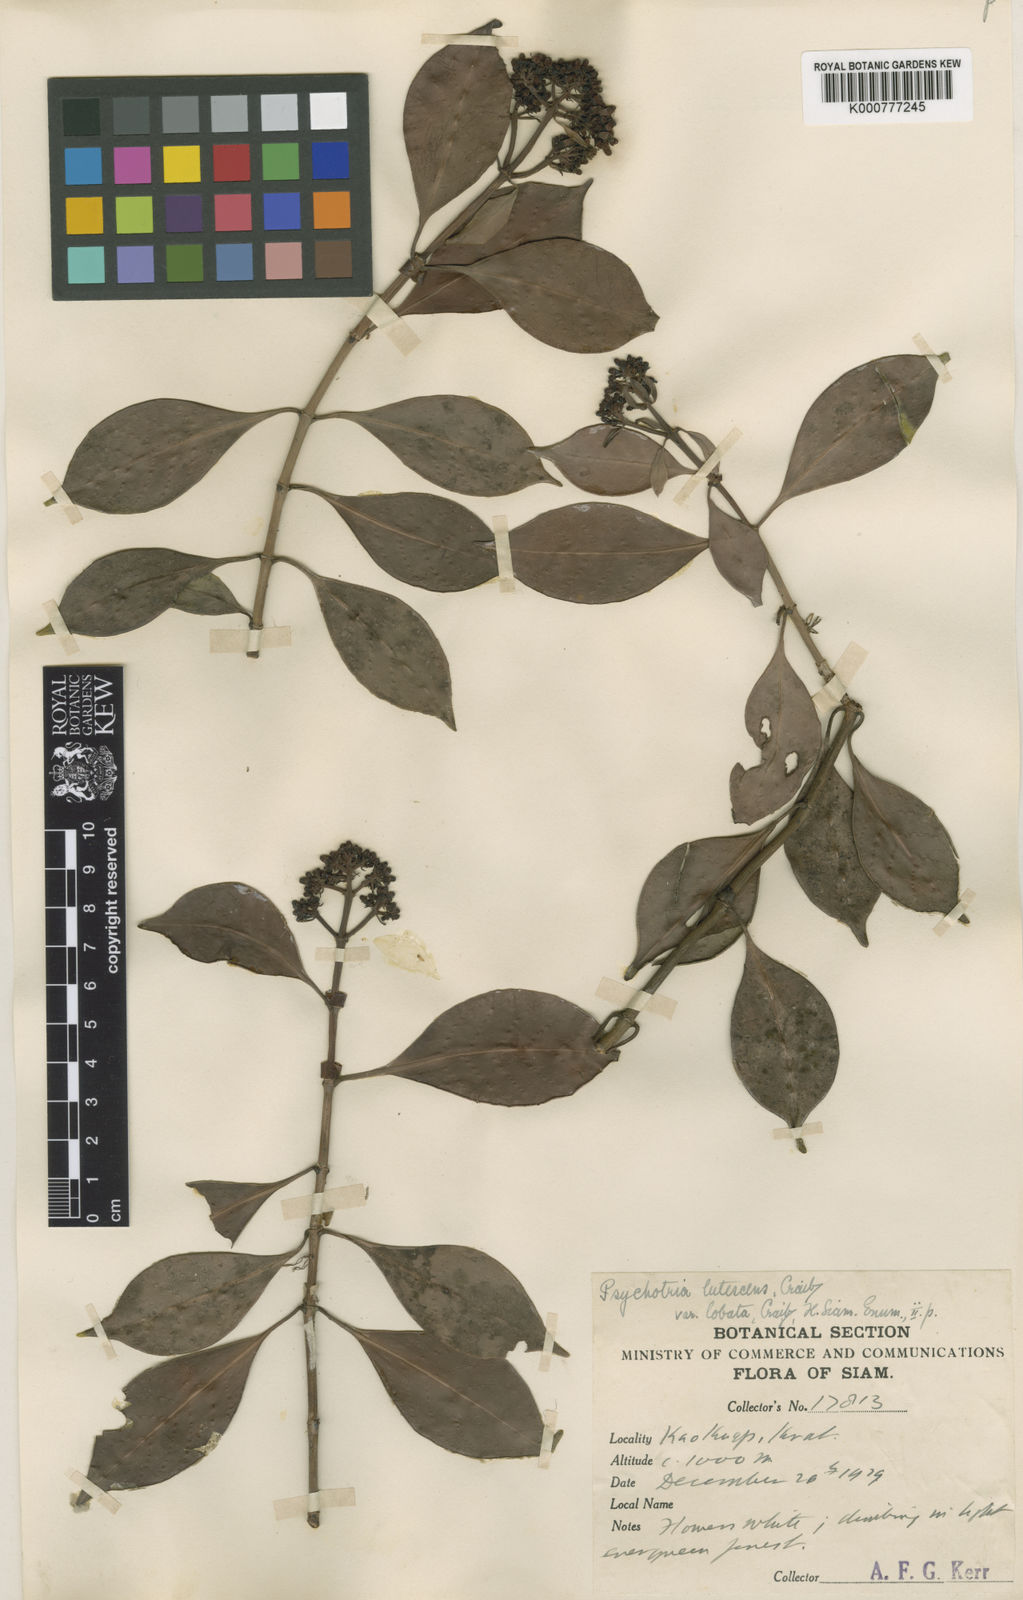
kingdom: Plantae
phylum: Tracheophyta
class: Magnoliopsida
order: Gentianales
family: Rubiaceae
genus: Psychotria
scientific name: Psychotria lutescens
